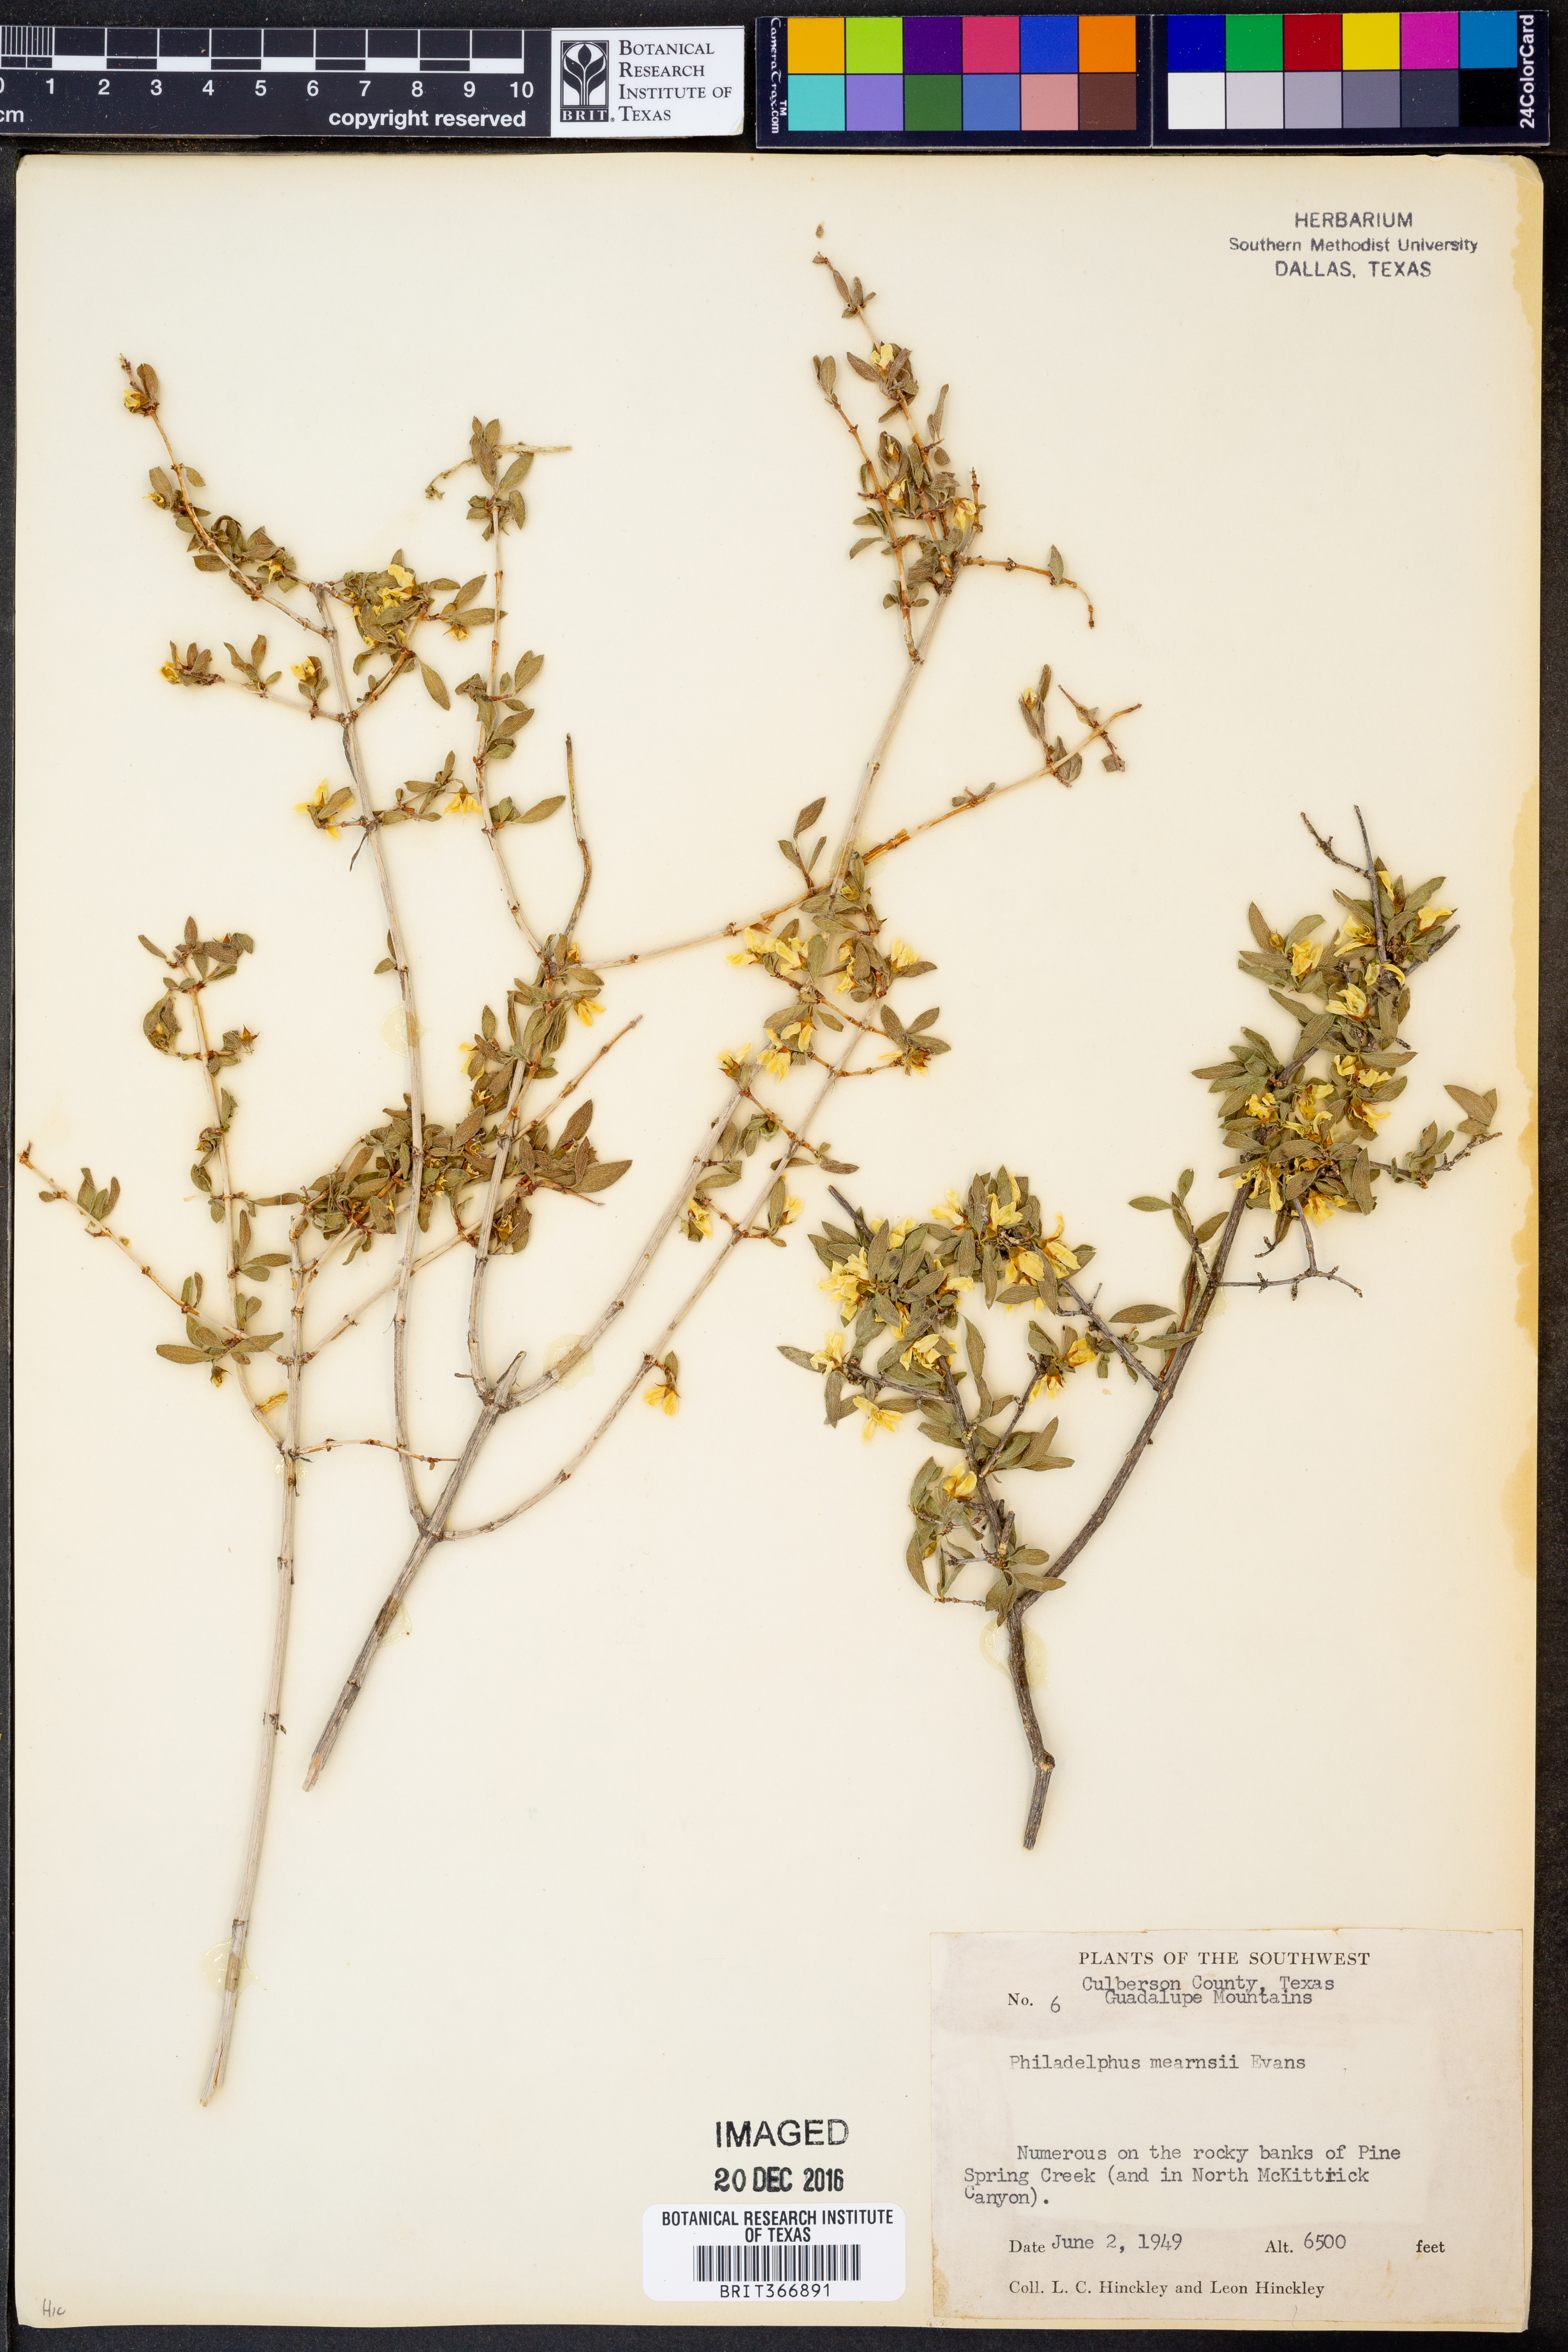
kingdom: Plantae
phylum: Tracheophyta
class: Magnoliopsida
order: Cornales
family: Hydrangeaceae
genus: Philadelphus
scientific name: Philadelphus mearnsii
